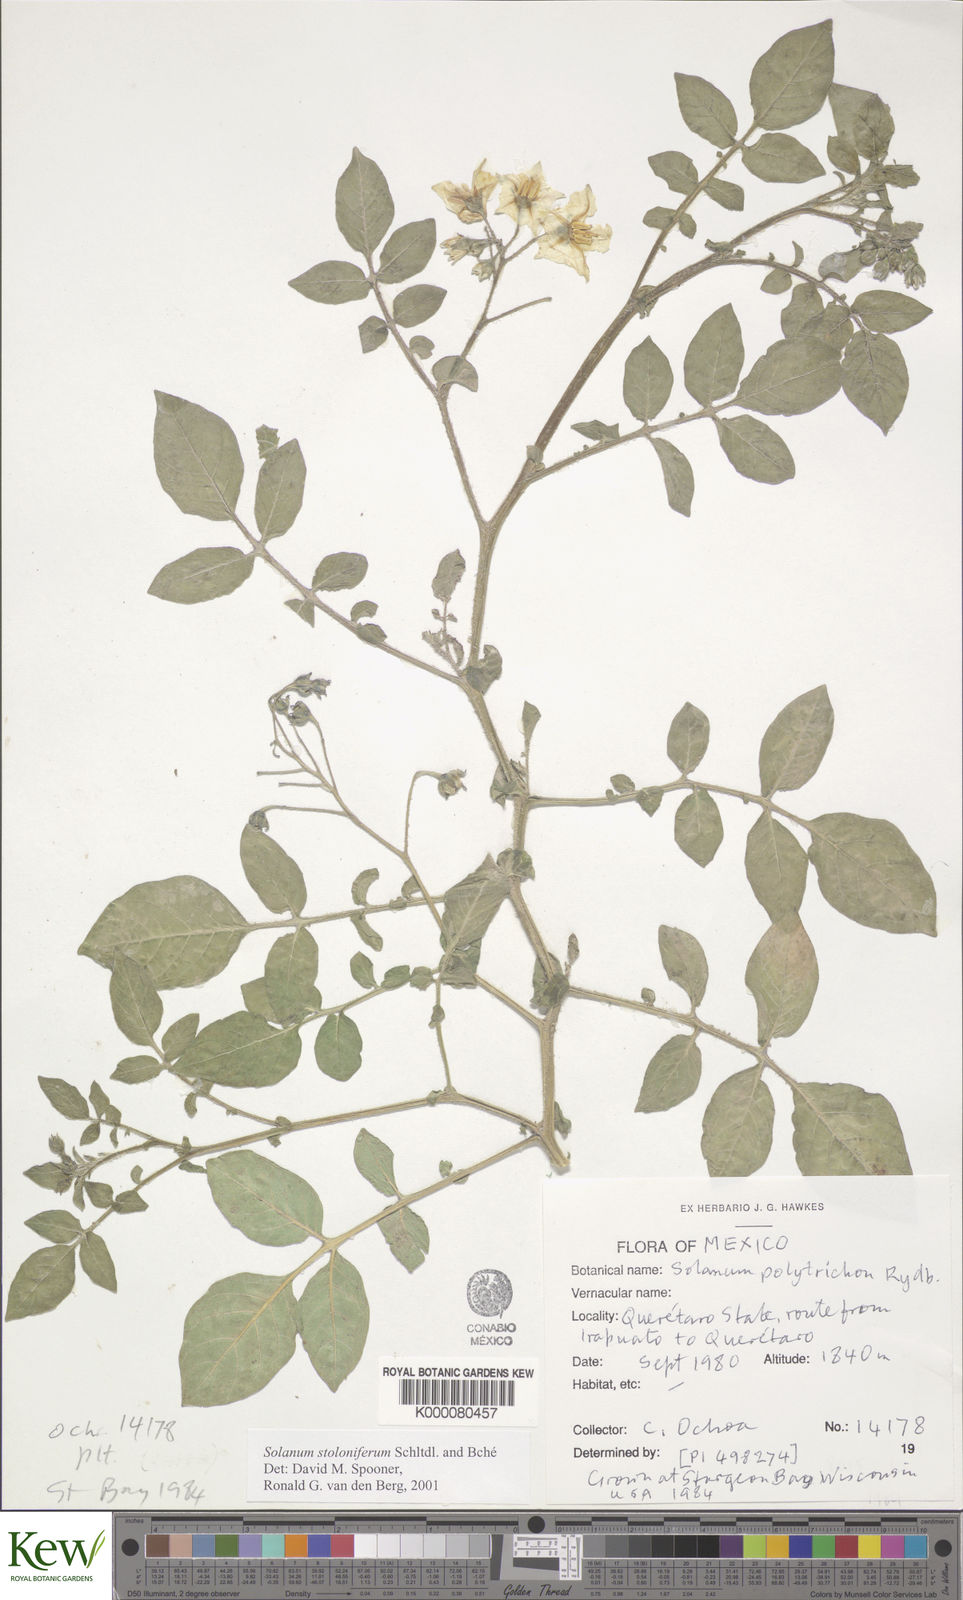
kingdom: Plantae
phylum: Tracheophyta
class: Magnoliopsida
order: Solanales
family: Solanaceae
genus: Solanum
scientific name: Solanum stoloniferum
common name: Fendler's nighshade
